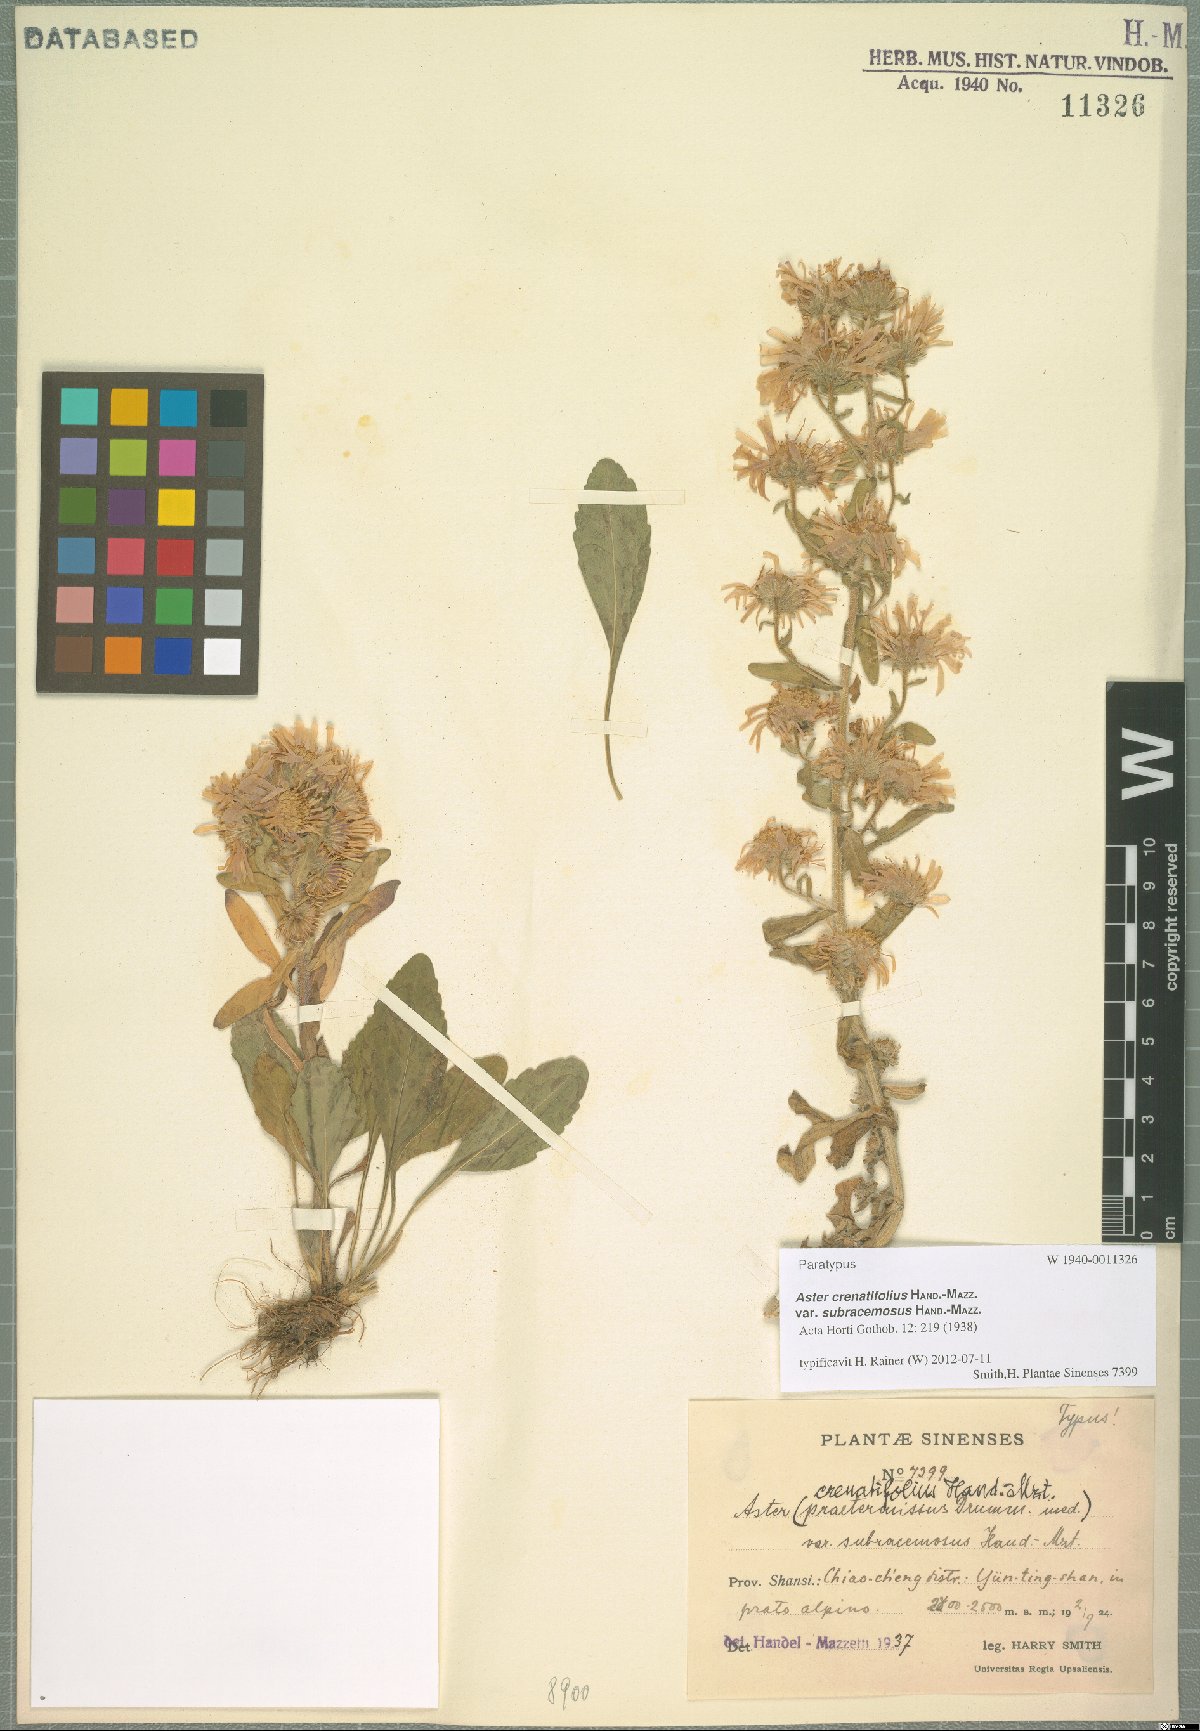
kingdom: Plantae
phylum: Tracheophyta
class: Magnoliopsida
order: Asterales
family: Asteraceae
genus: Heteropappus
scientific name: Heteropappus crenatifolius
